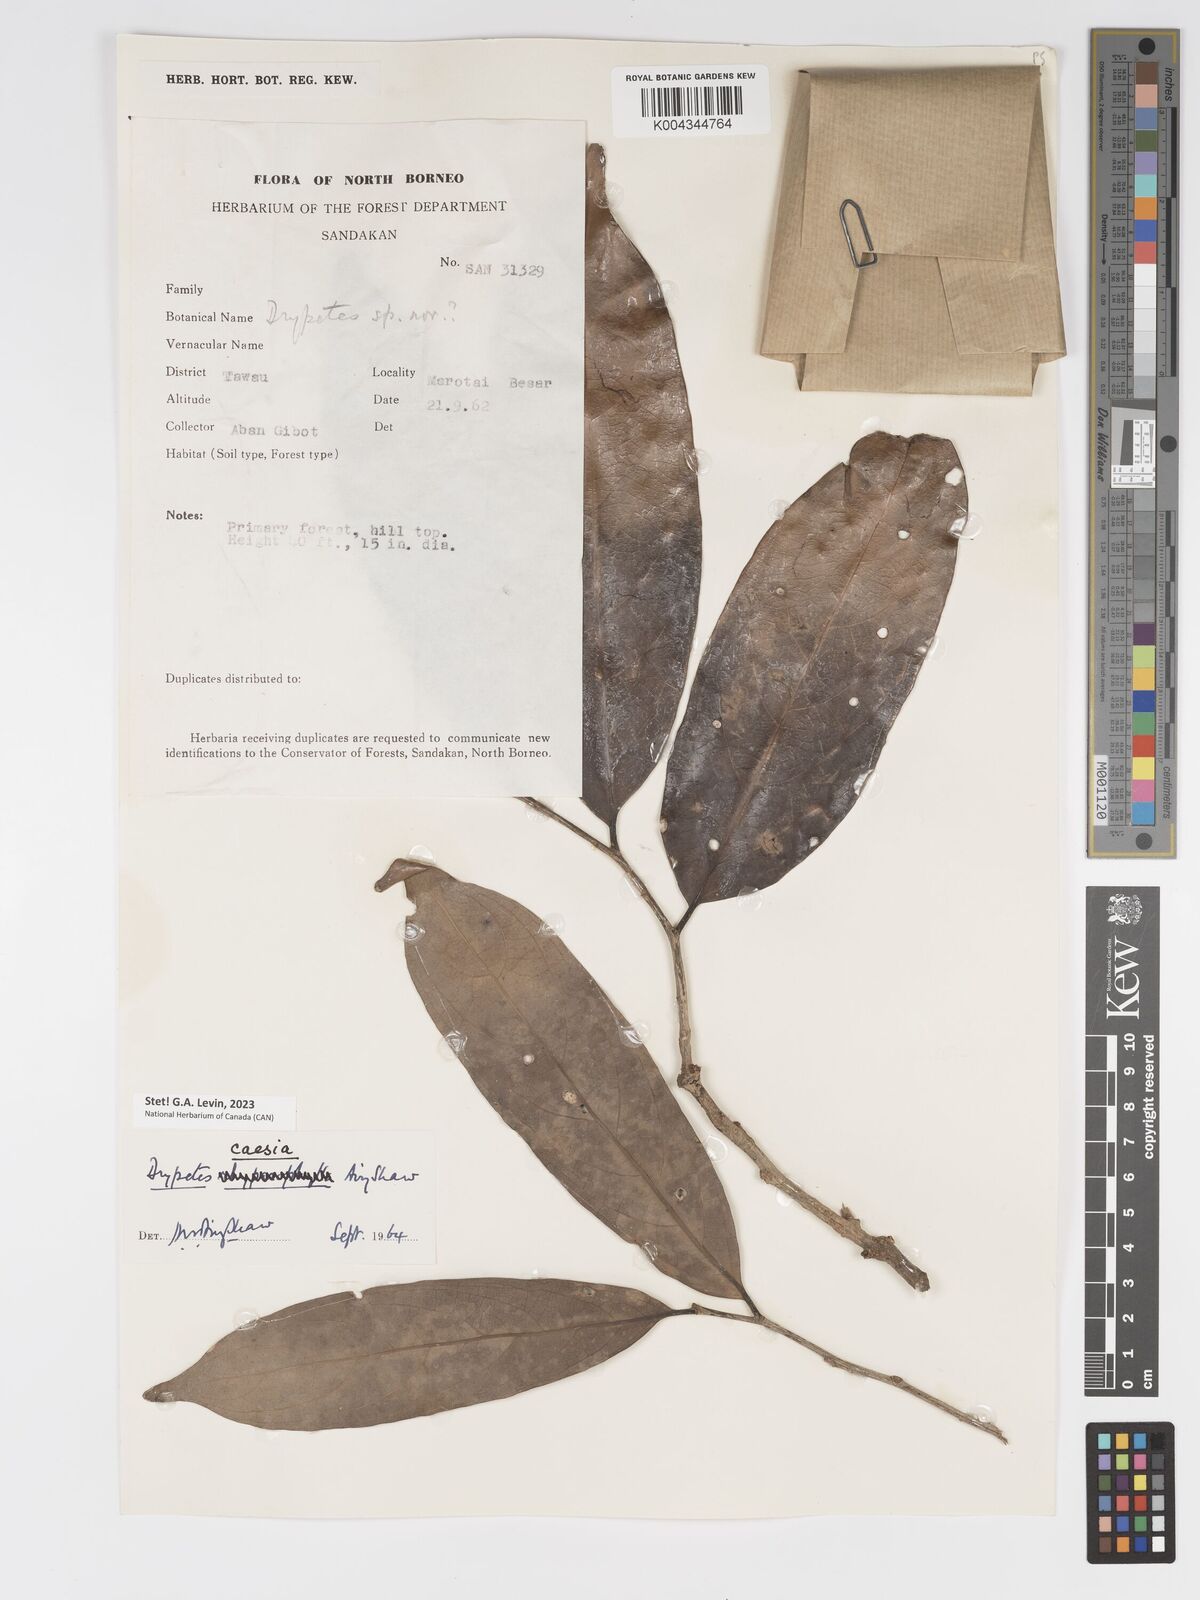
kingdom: Plantae
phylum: Tracheophyta
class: Magnoliopsida
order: Malpighiales
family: Putranjivaceae
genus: Drypetes
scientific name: Drypetes caesia
